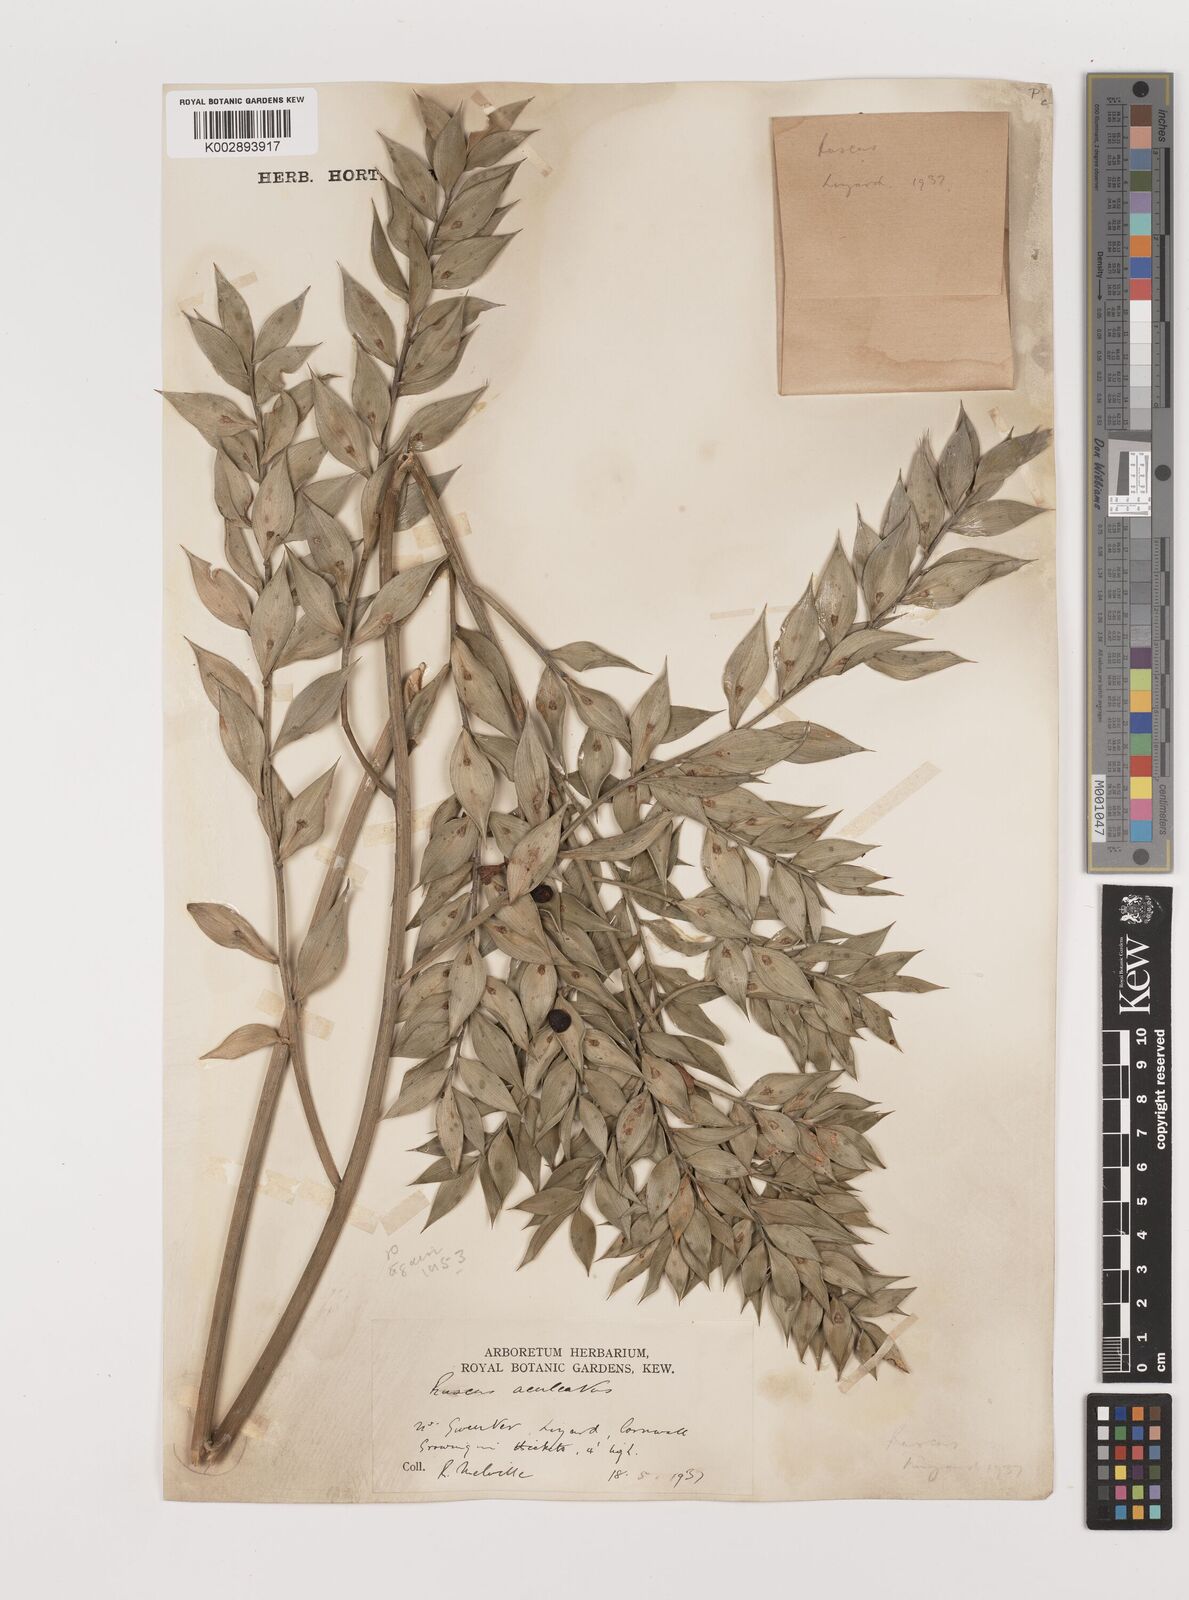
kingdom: Plantae
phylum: Tracheophyta
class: Liliopsida
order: Asparagales
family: Asparagaceae
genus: Ruscus
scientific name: Ruscus aculeatus
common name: Butcher's-broom
